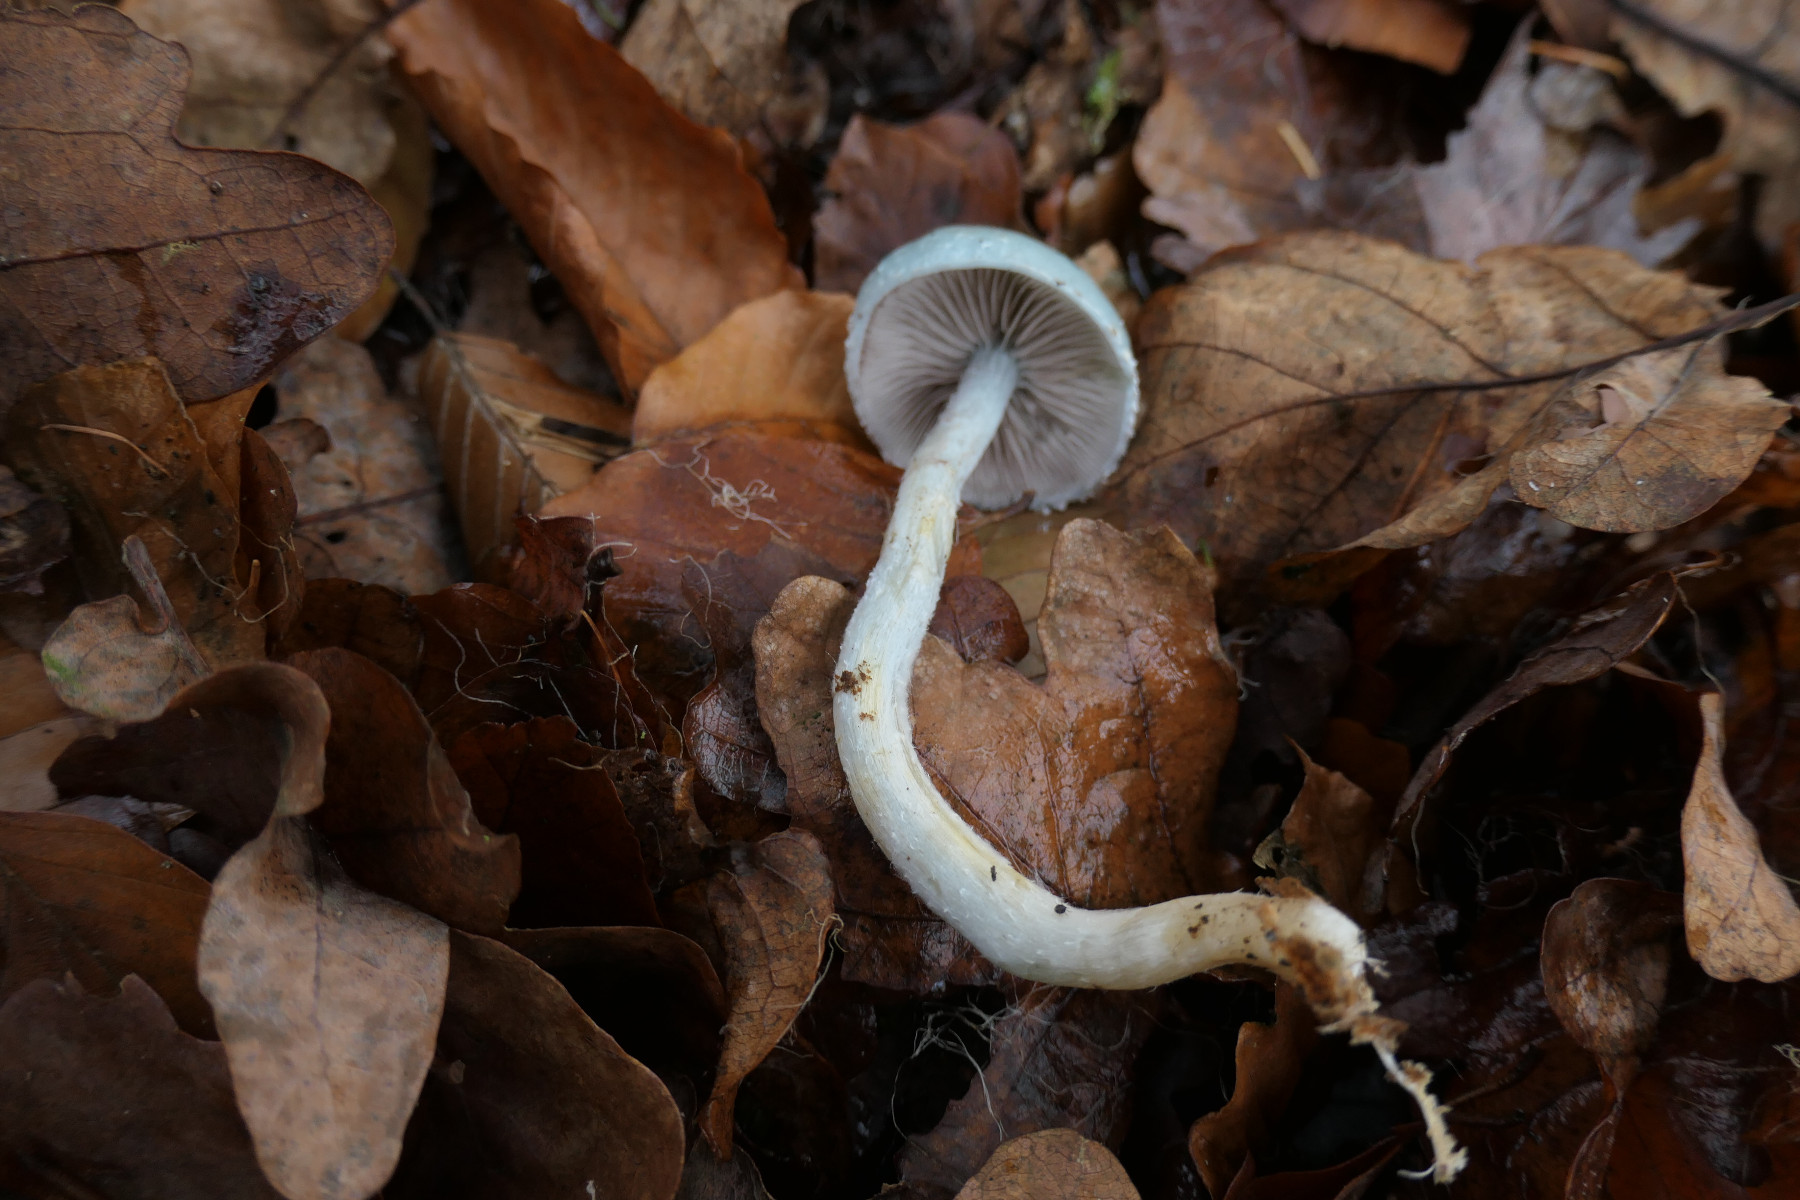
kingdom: Fungi
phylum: Basidiomycota
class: Agaricomycetes
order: Agaricales
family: Strophariaceae
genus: Stropharia
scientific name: Stropharia cyanea
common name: blågrøn bredblad
